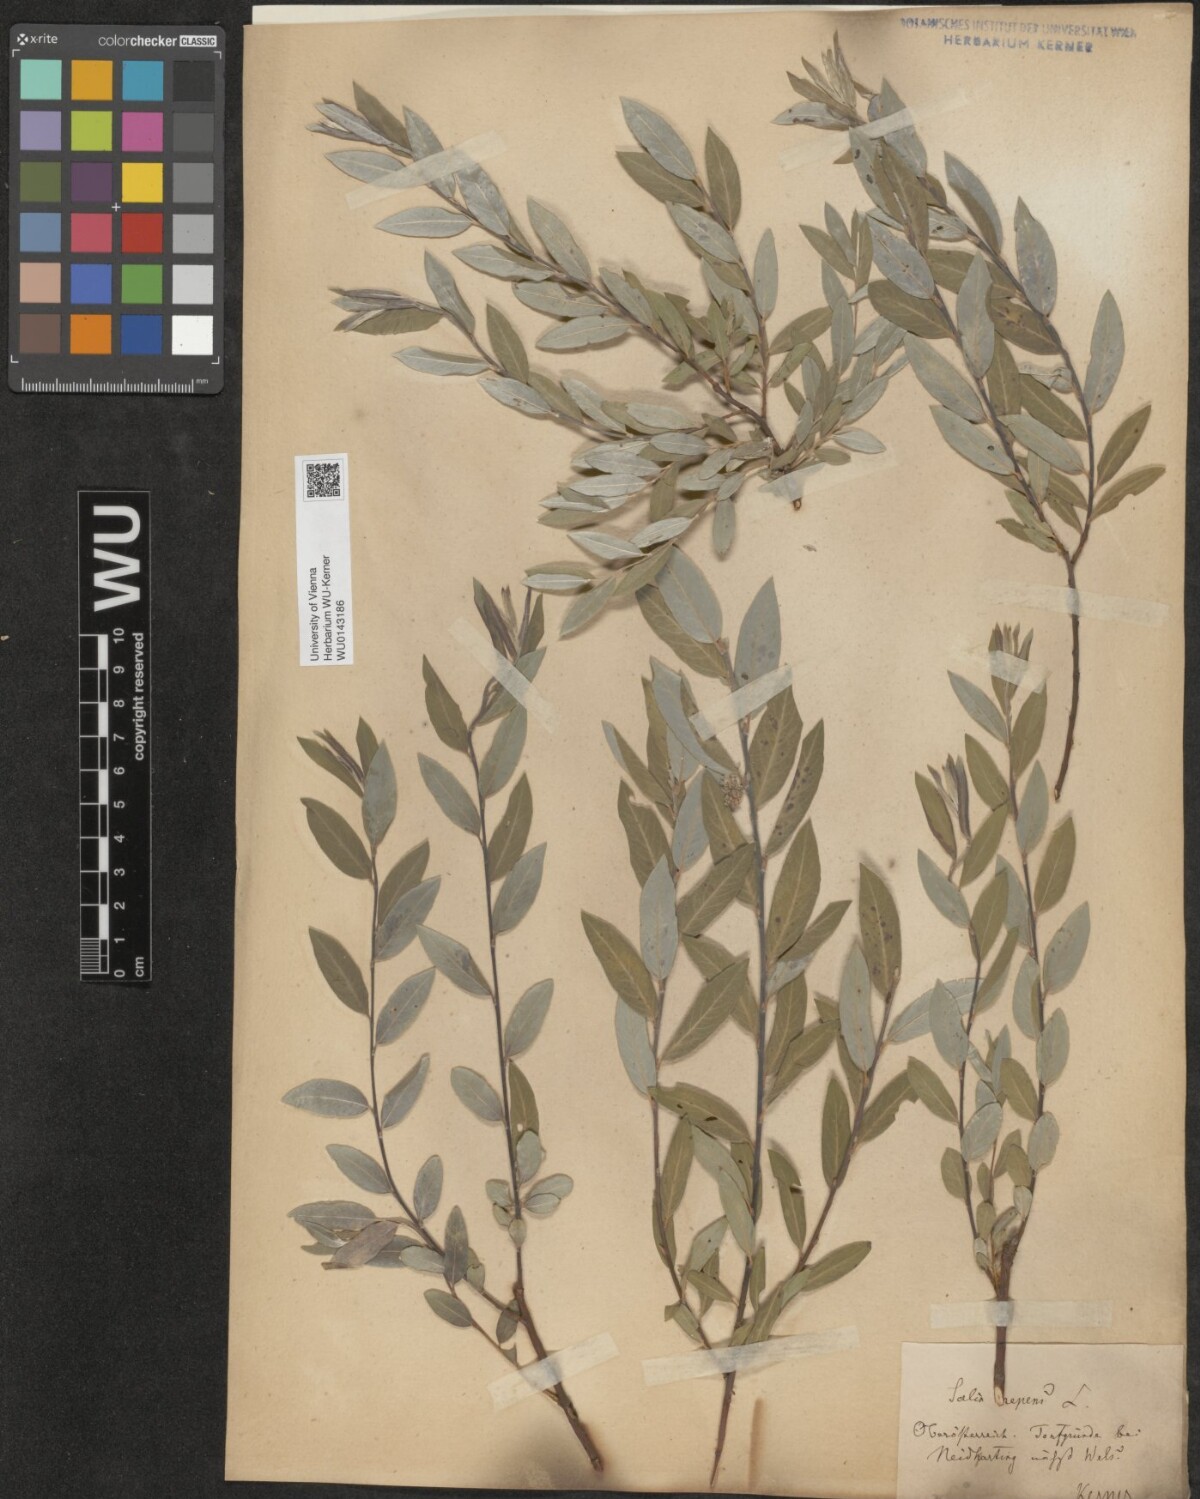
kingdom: Plantae
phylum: Tracheophyta
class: Magnoliopsida
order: Malpighiales
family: Salicaceae
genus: Salix
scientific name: Salix repens
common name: Creeping willow
